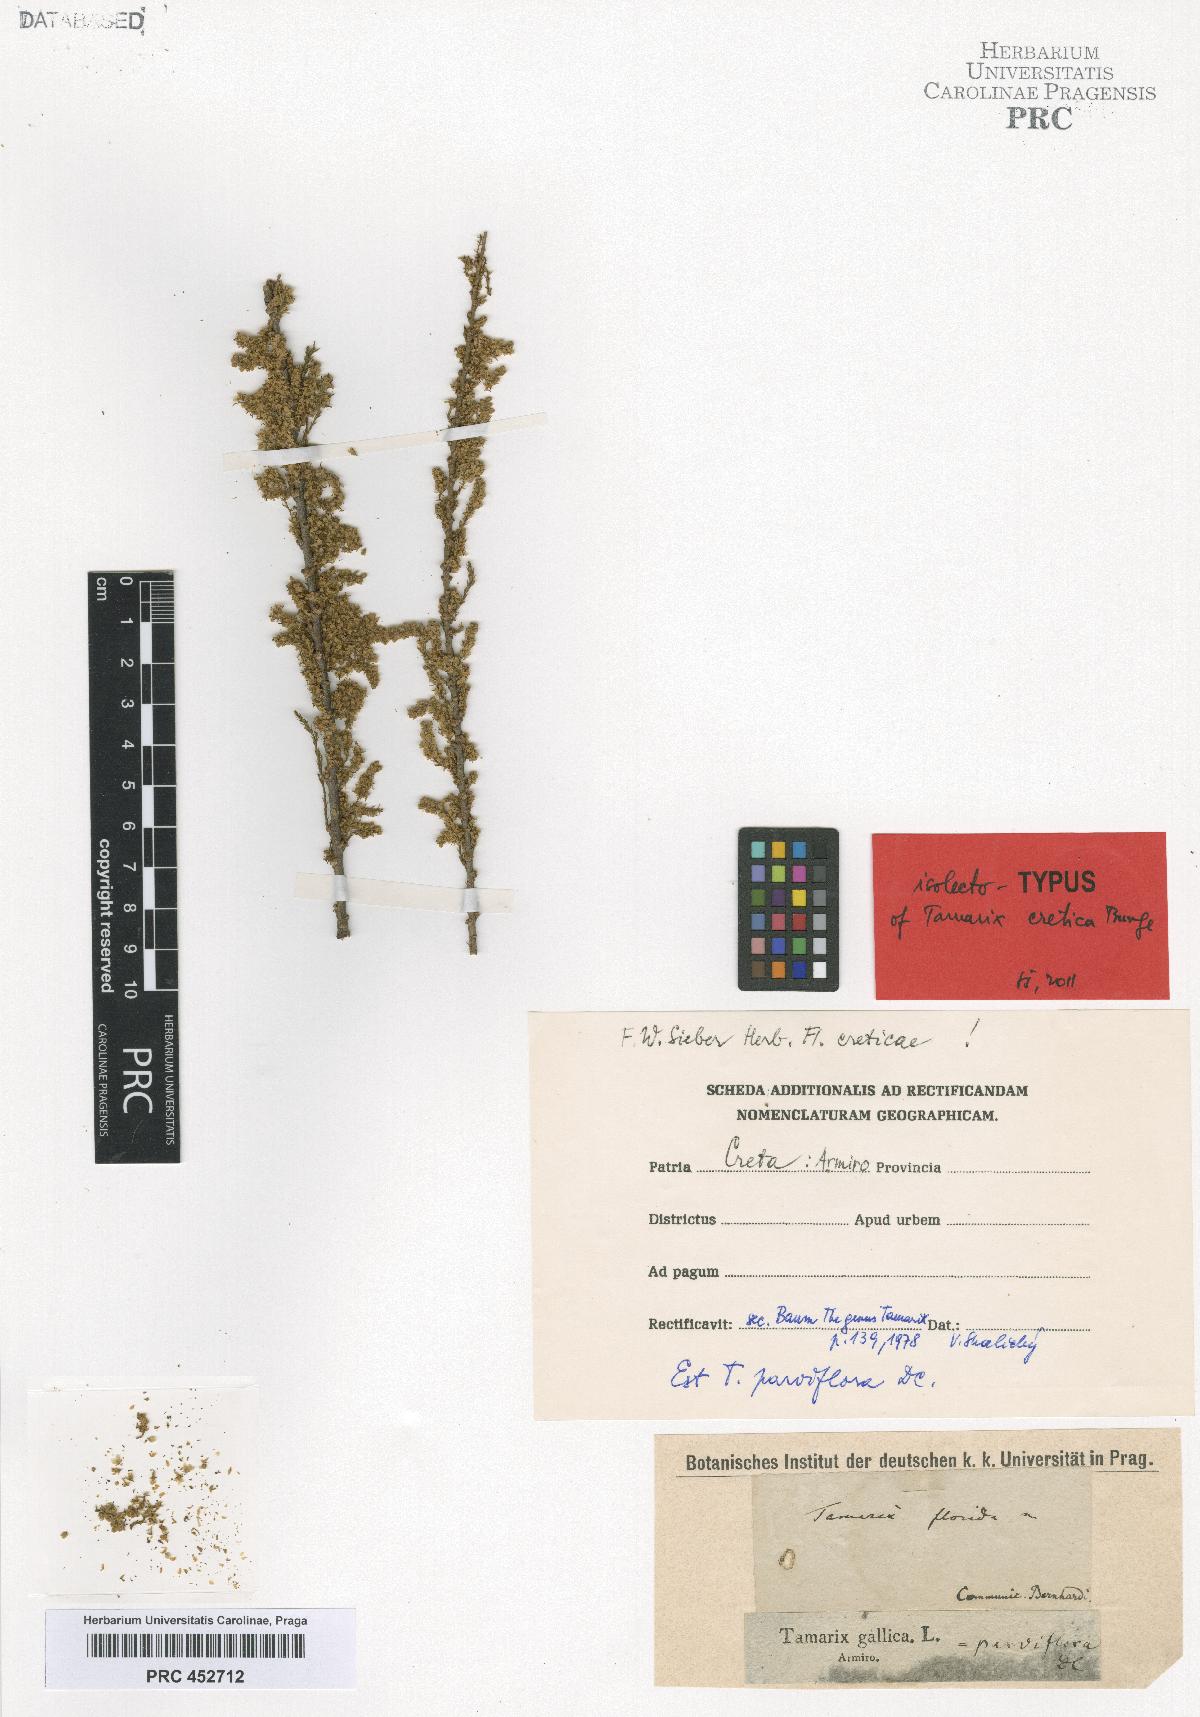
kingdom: Plantae
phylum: Tracheophyta
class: Magnoliopsida
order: Caryophyllales
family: Tamaricaceae
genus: Tamarix
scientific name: Tamarix parviflora
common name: Smallflower tamarisk
